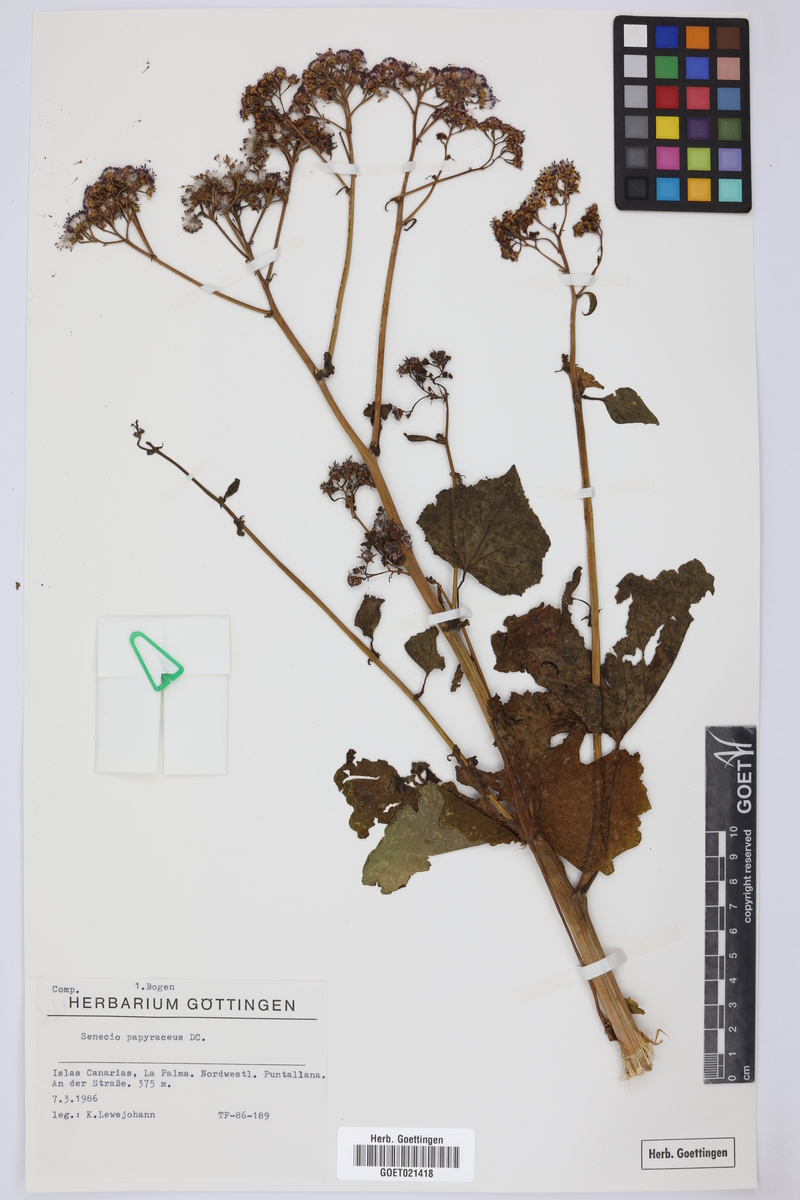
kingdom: Plantae
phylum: Tracheophyta
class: Magnoliopsida
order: Asterales
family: Asteraceae
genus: Pericallis
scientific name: Pericallis papyracea
